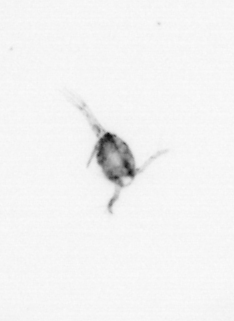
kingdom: Animalia
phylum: Arthropoda
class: Copepoda
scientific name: Copepoda
